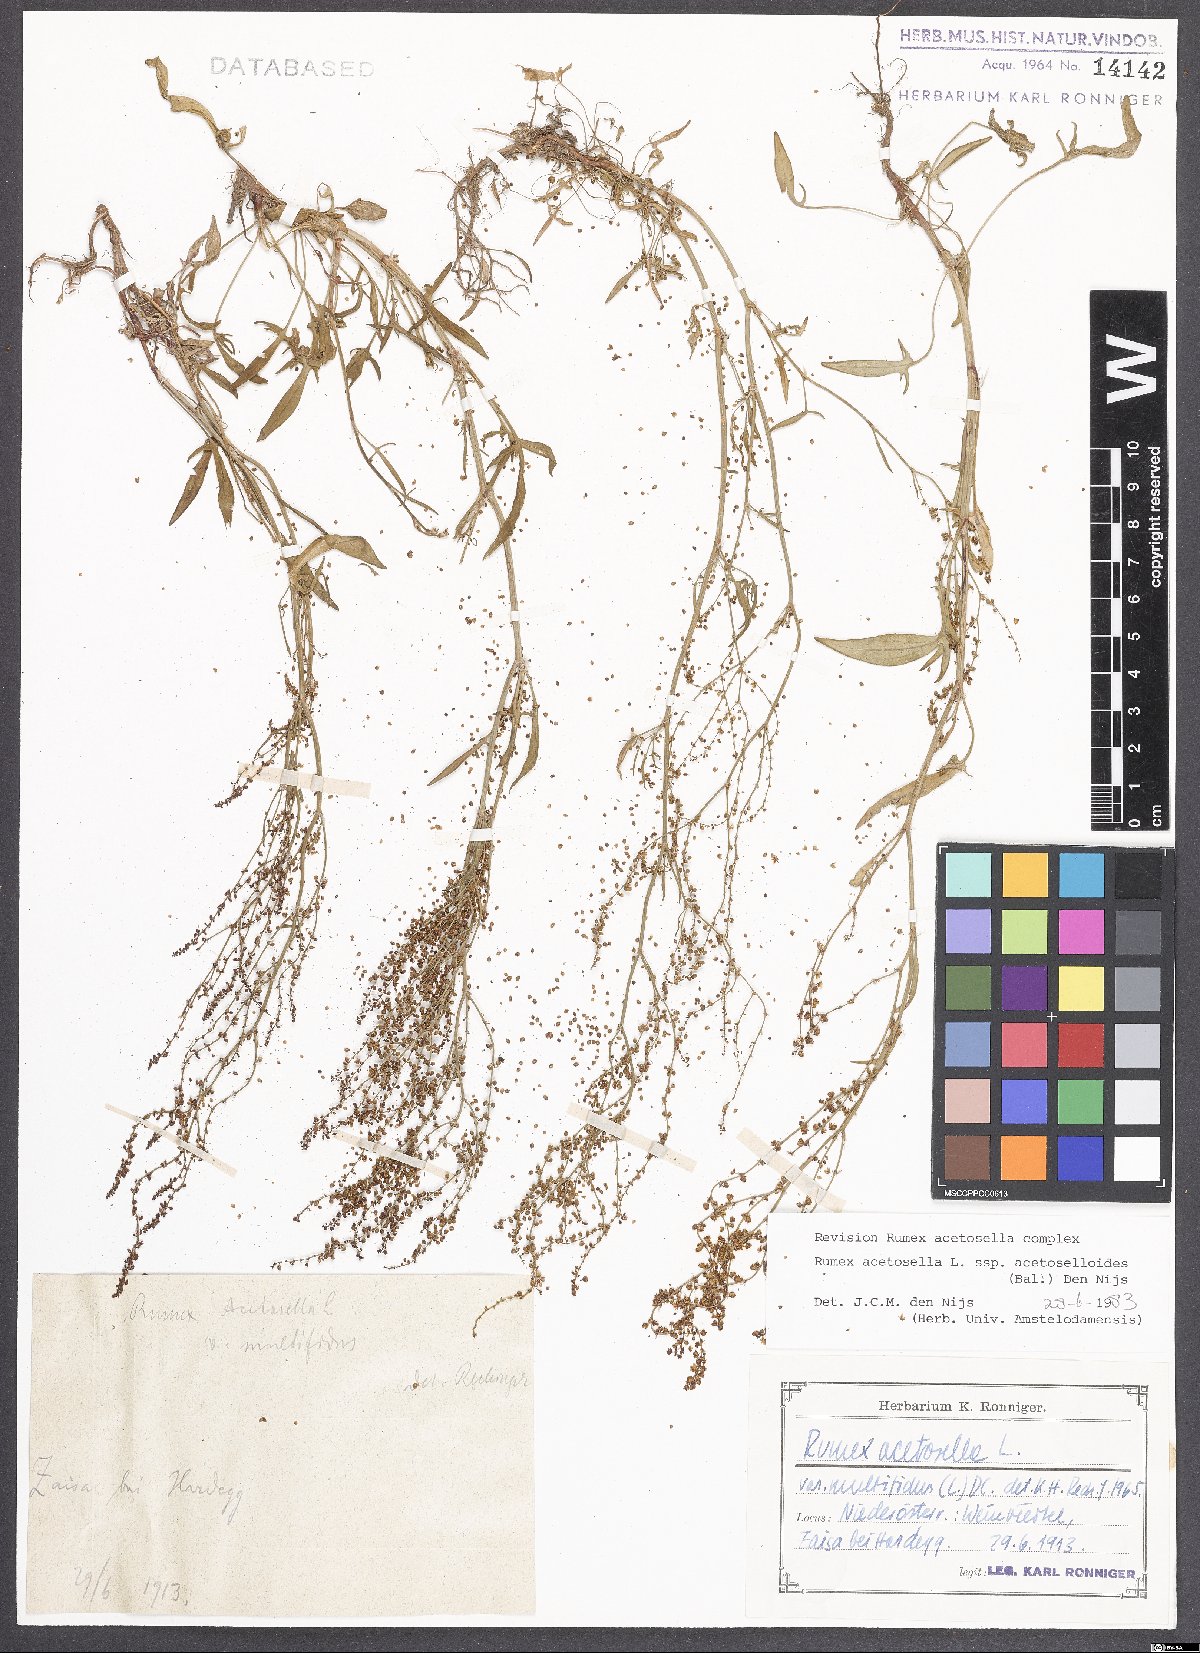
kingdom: Plantae
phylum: Tracheophyta
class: Magnoliopsida
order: Caryophyllales
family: Polygonaceae
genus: Rumex
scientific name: Rumex acetosella
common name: Common sheep sorrel
